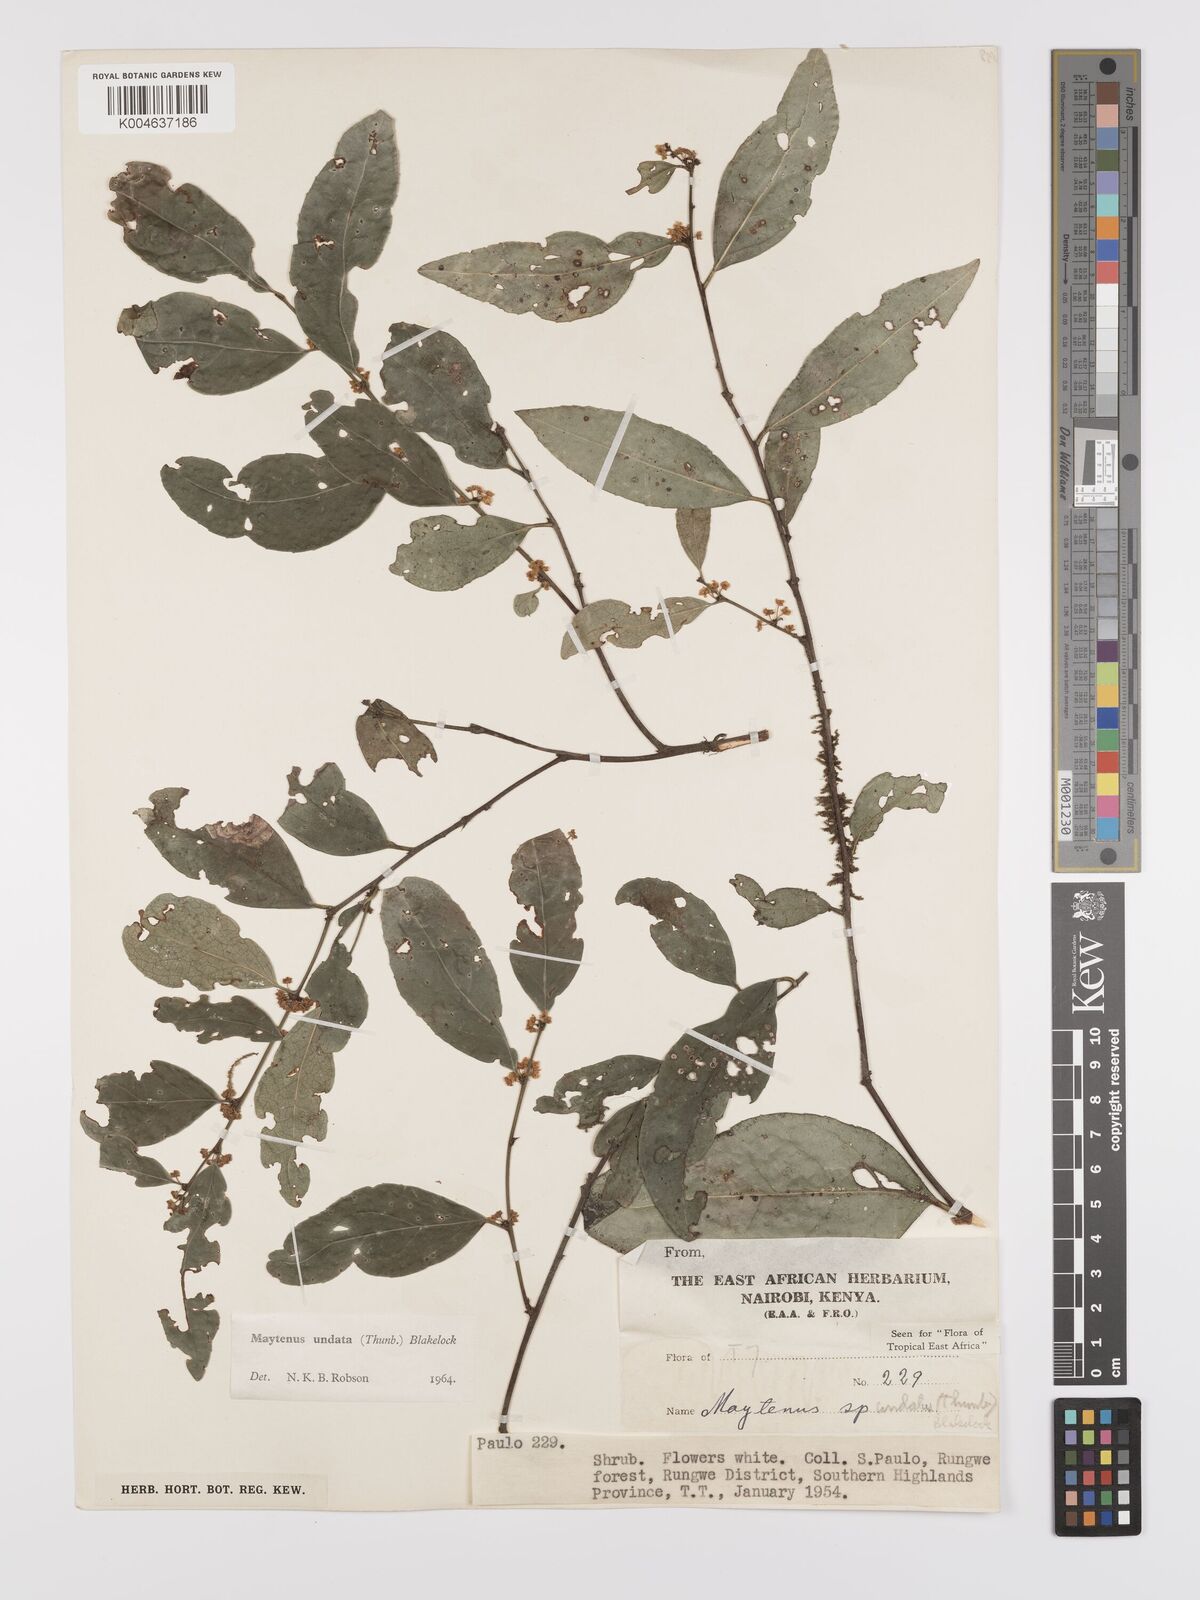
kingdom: Plantae
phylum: Tracheophyta
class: Magnoliopsida
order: Celastrales
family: Celastraceae
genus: Gymnosporia
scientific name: Gymnosporia undata
